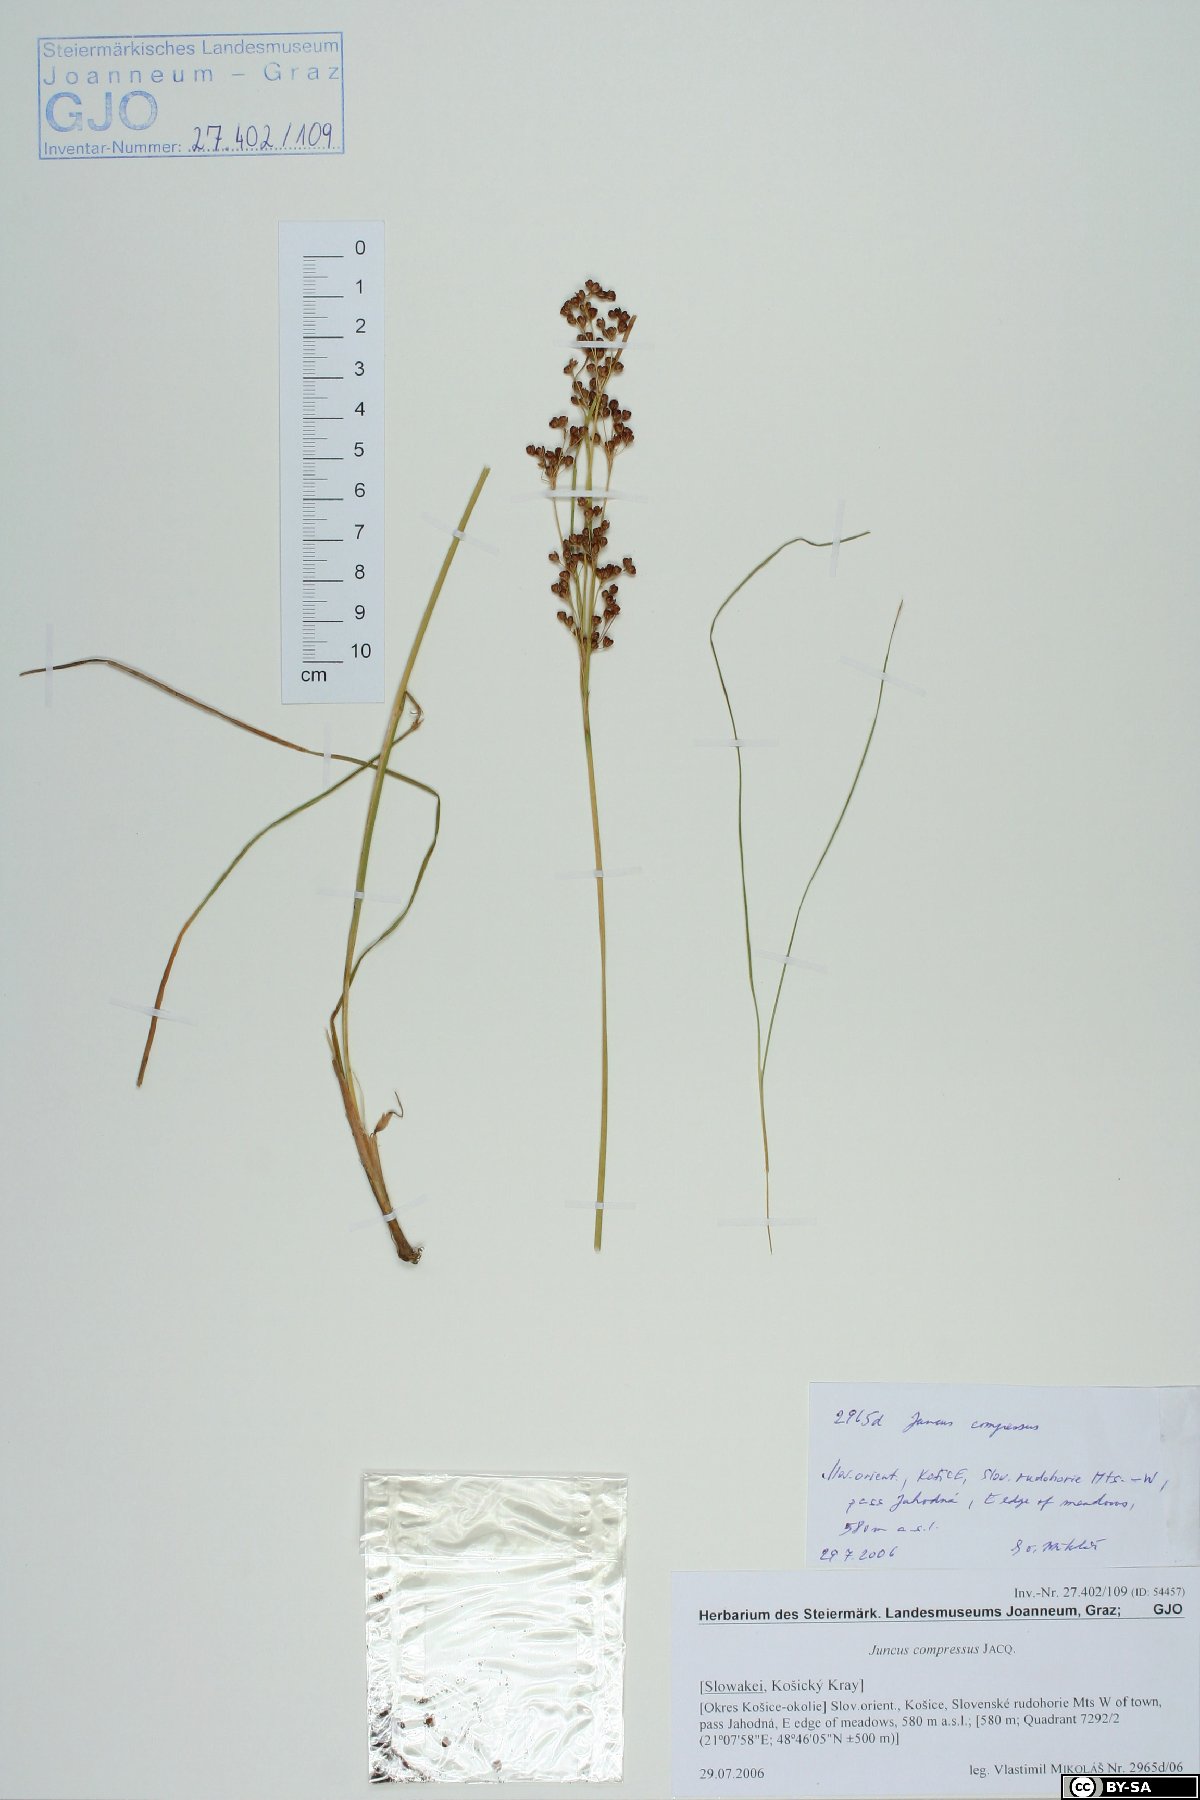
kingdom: Plantae
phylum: Tracheophyta
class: Liliopsida
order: Poales
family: Juncaceae
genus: Juncus
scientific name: Juncus compressus
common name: Round-fruited rush
